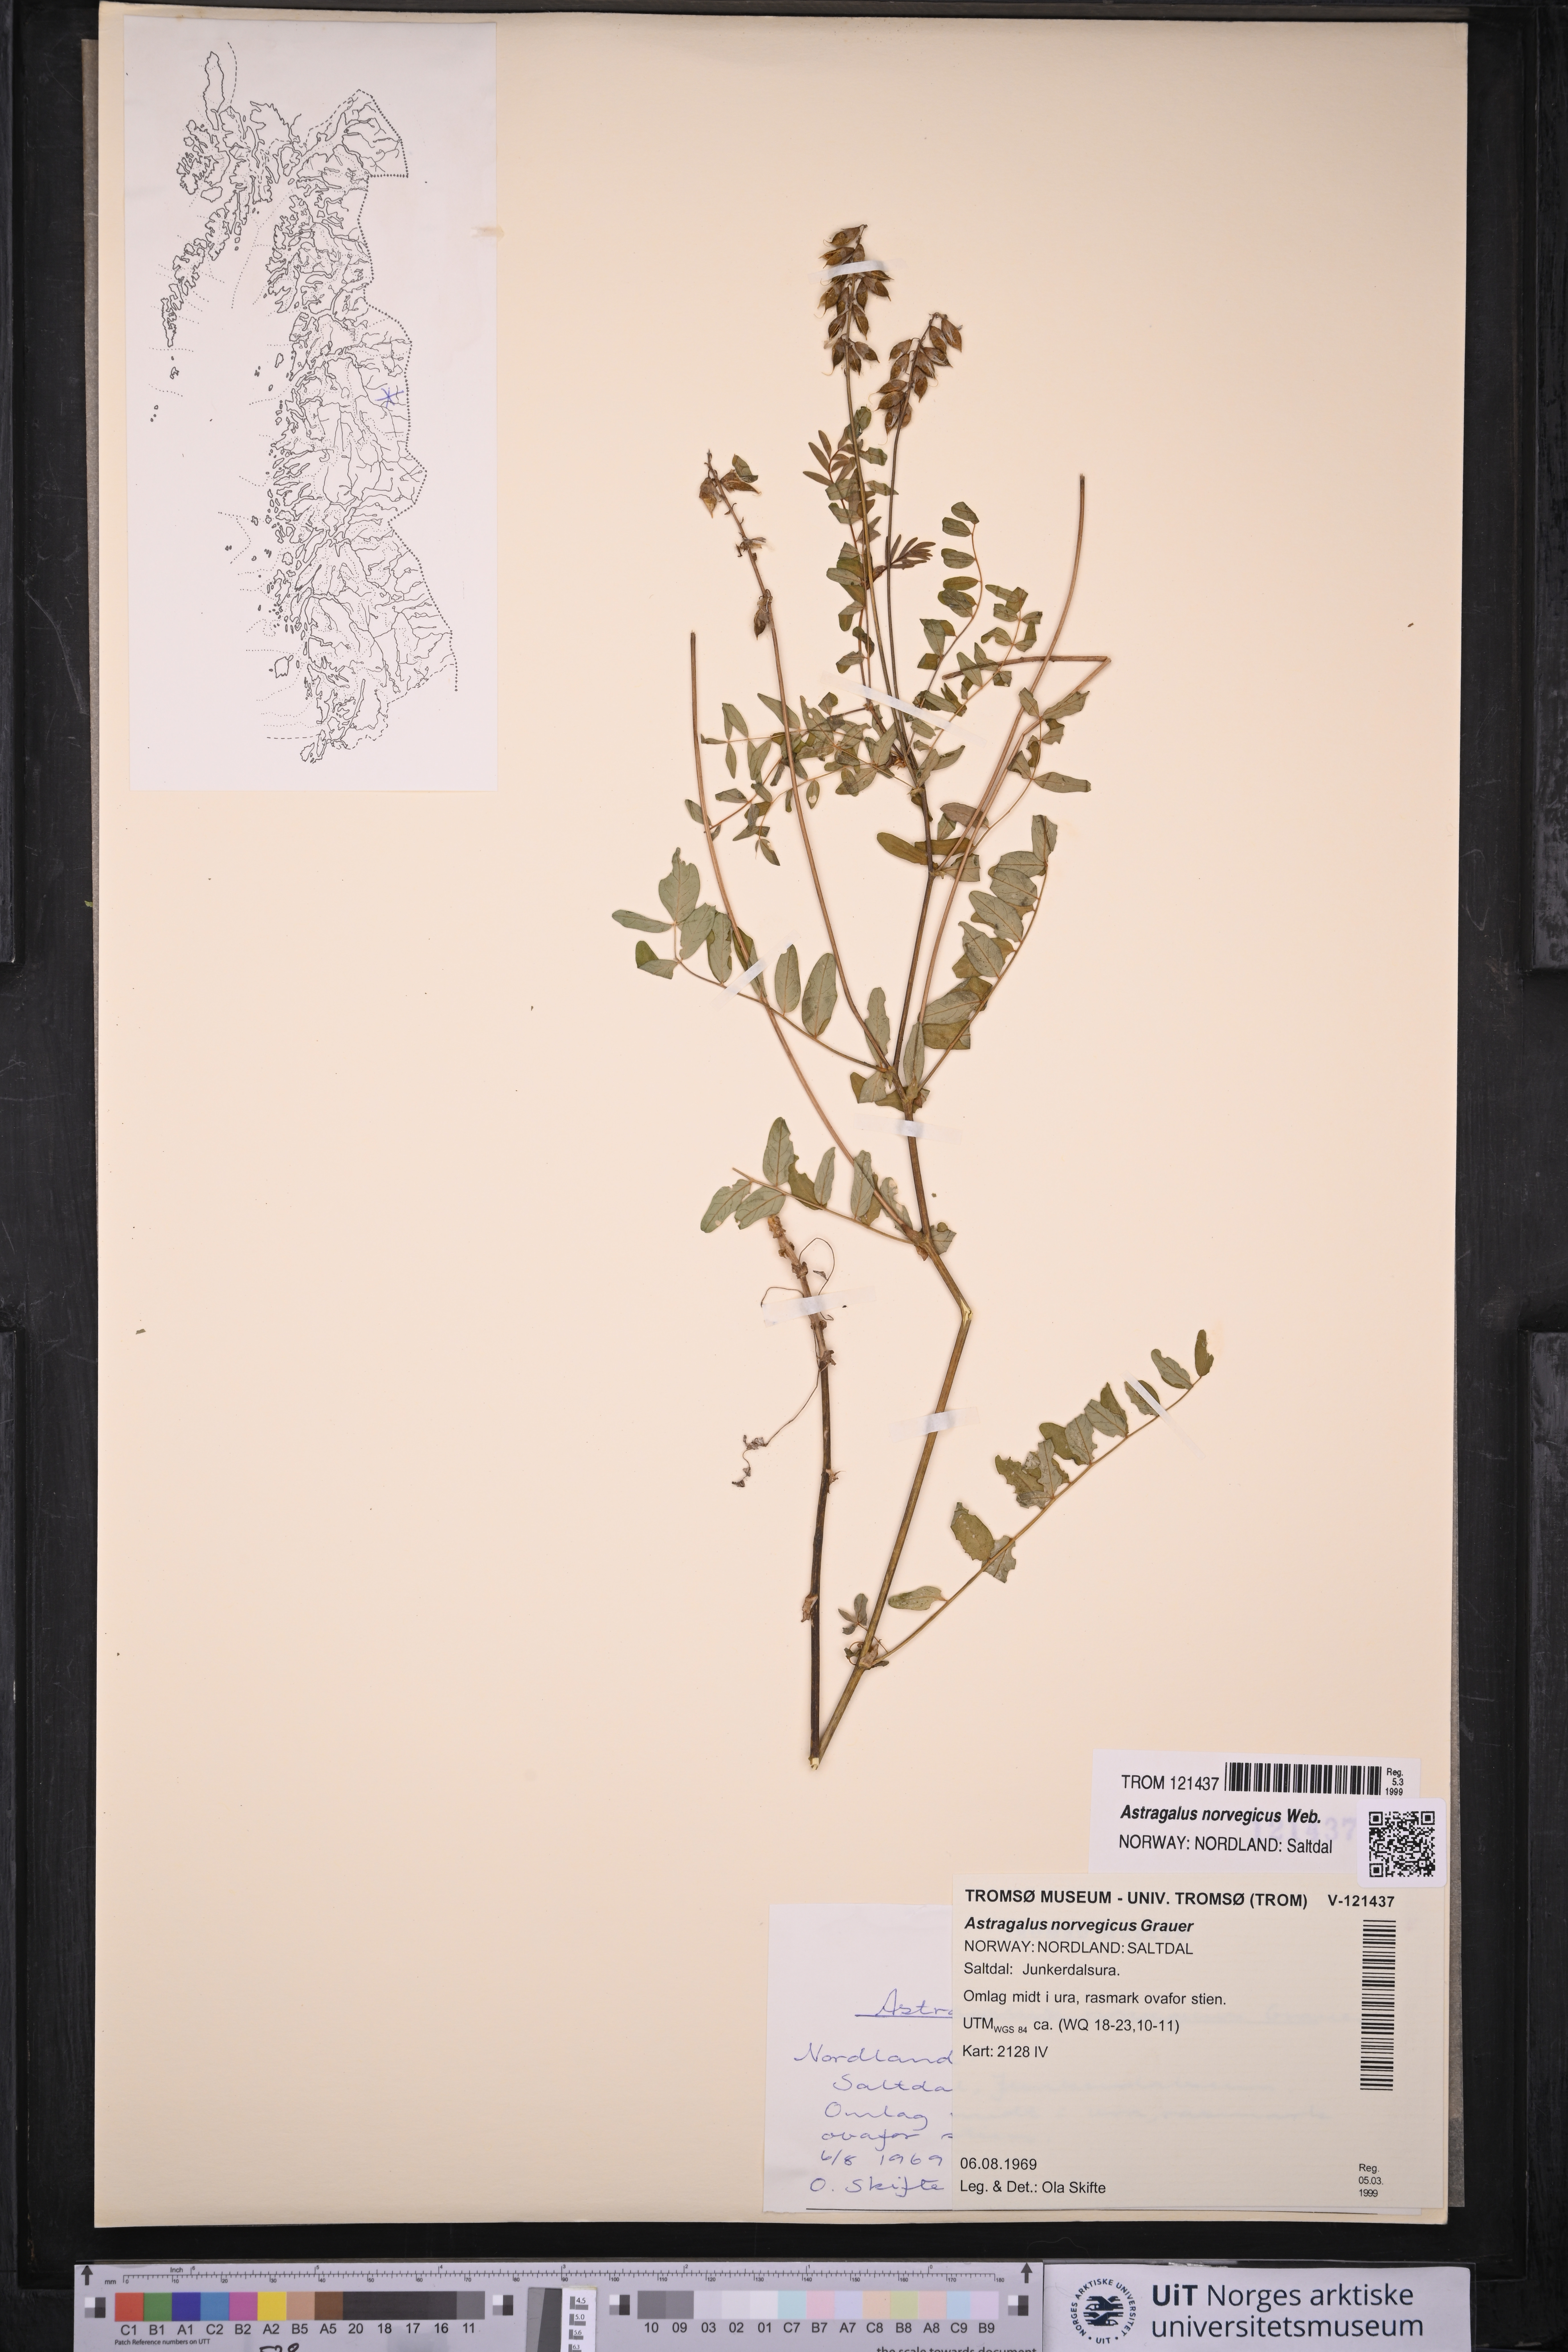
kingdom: Plantae
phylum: Tracheophyta
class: Magnoliopsida
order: Fabales
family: Fabaceae
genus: Astragalus
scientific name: Astragalus norvegicus
